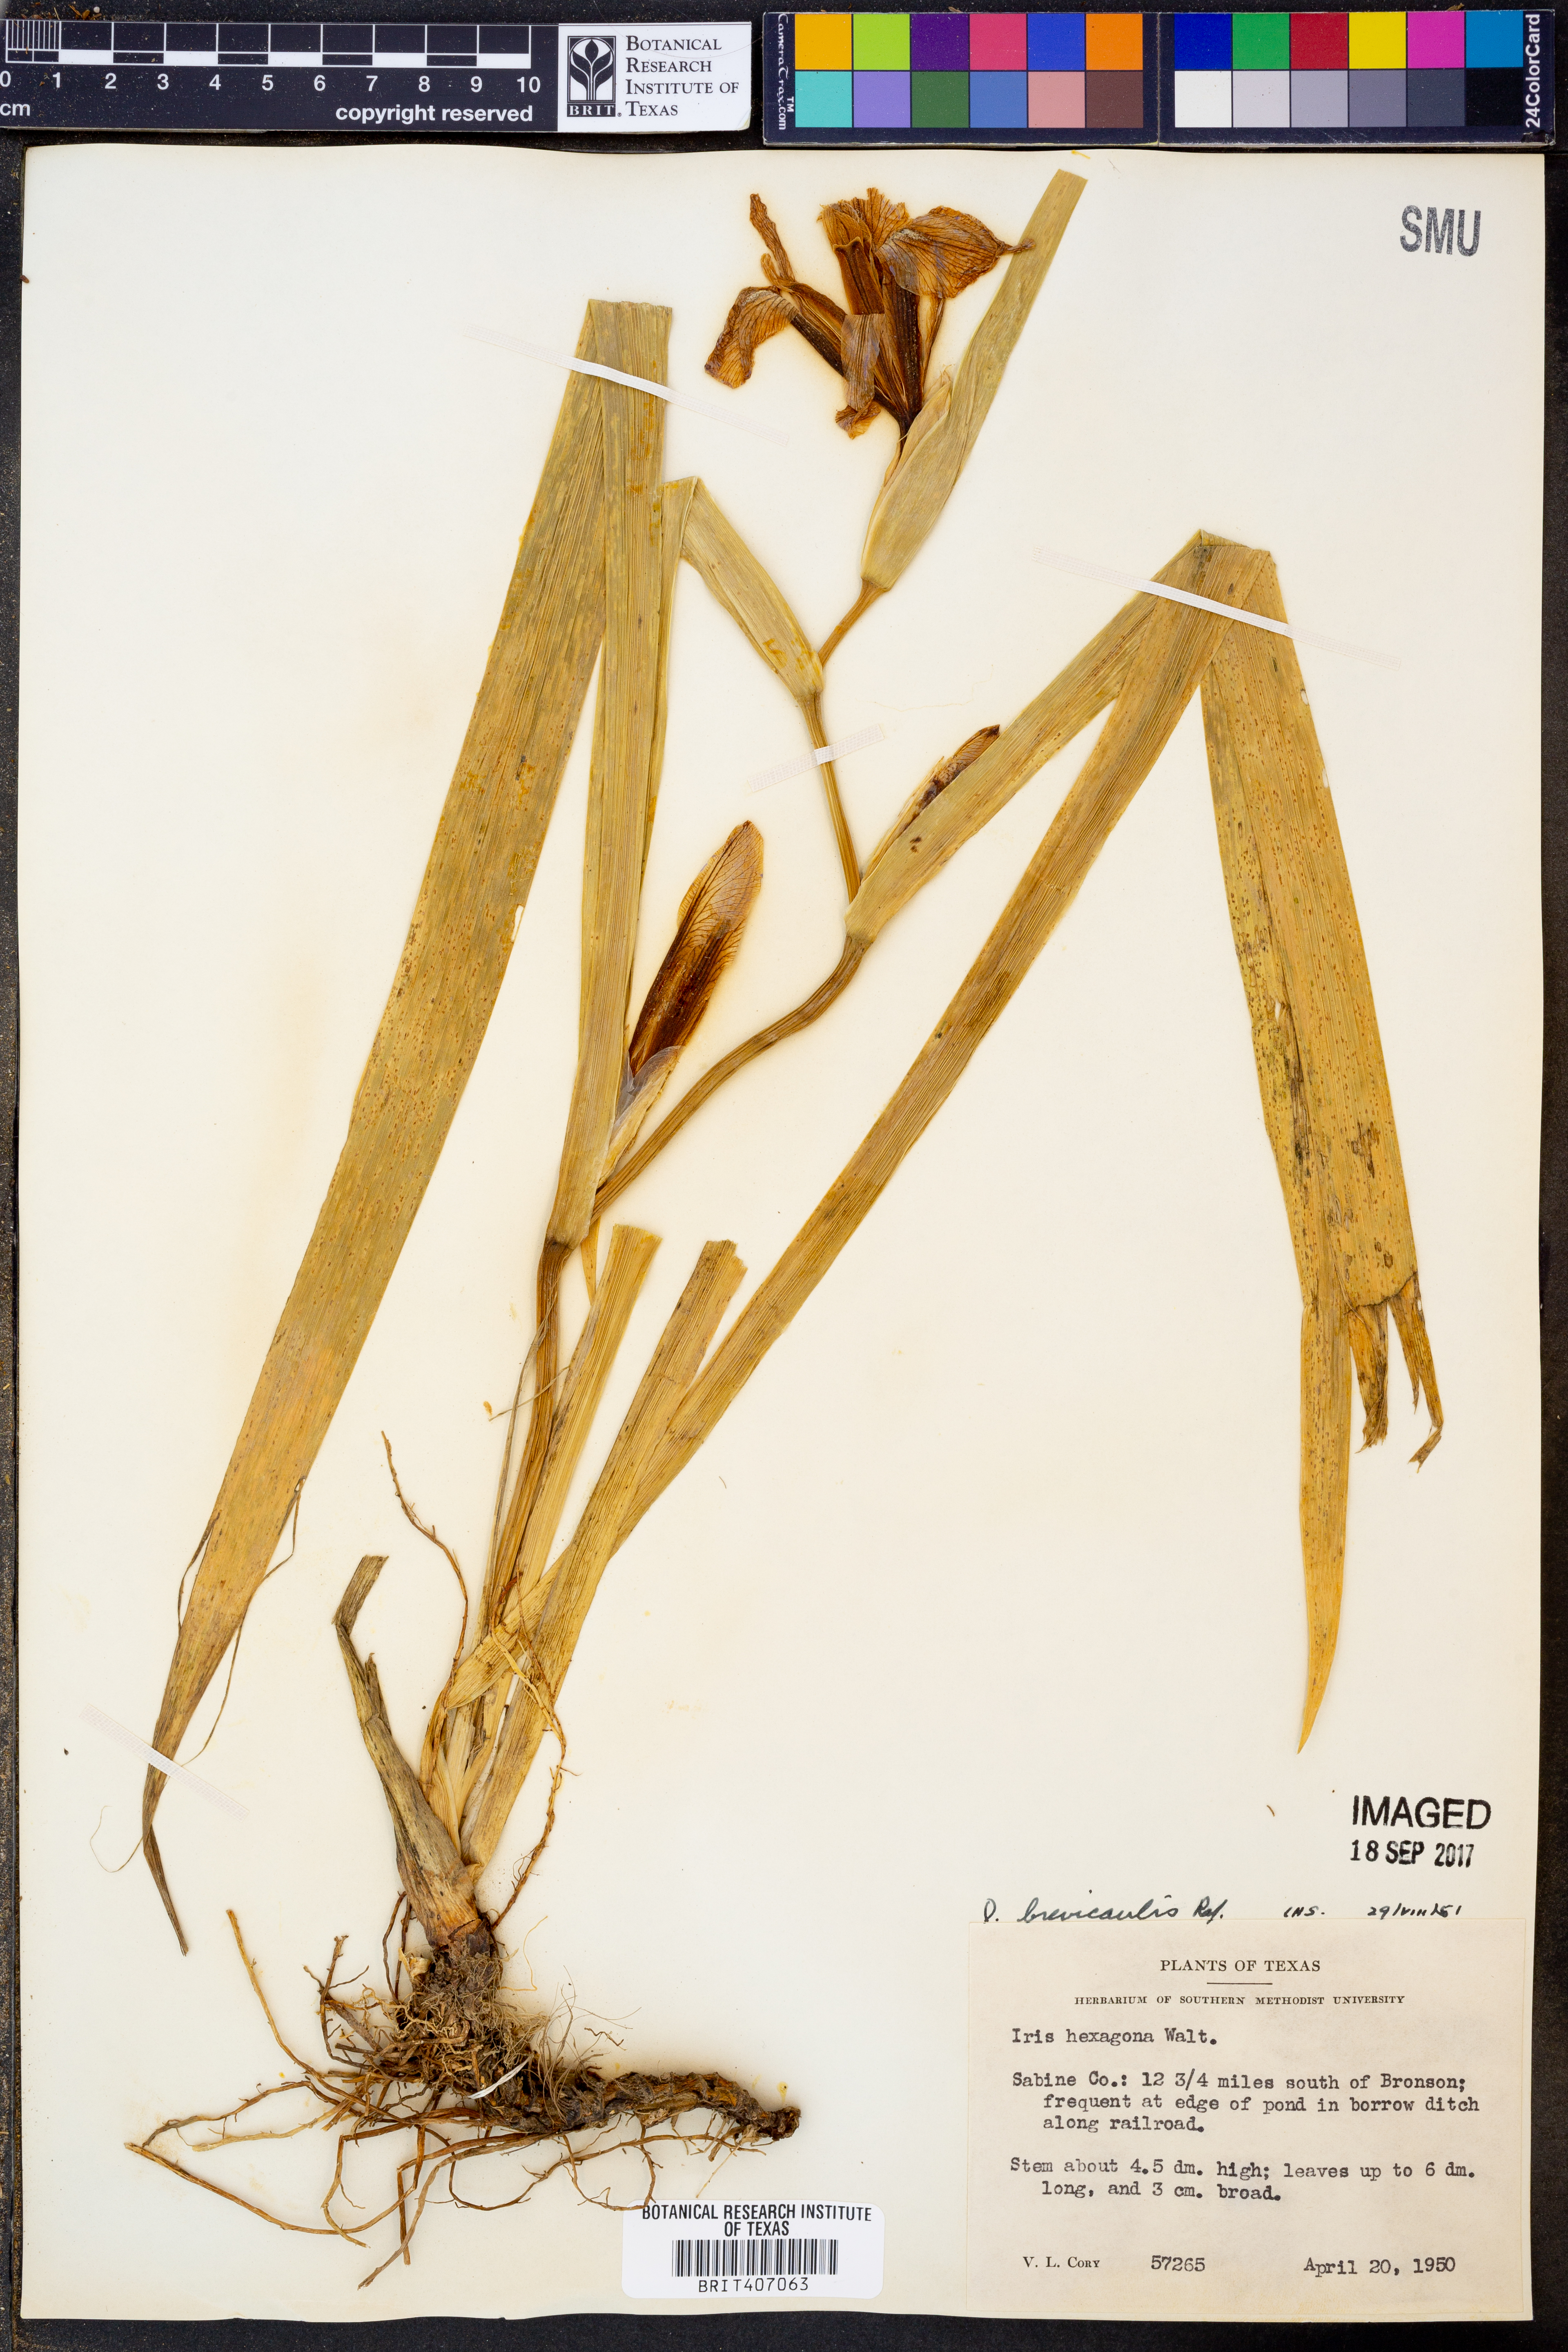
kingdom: Plantae
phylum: Tracheophyta
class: Liliopsida
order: Asparagales
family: Iridaceae
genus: Iris
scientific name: Iris hexagona
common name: Carolina iris
